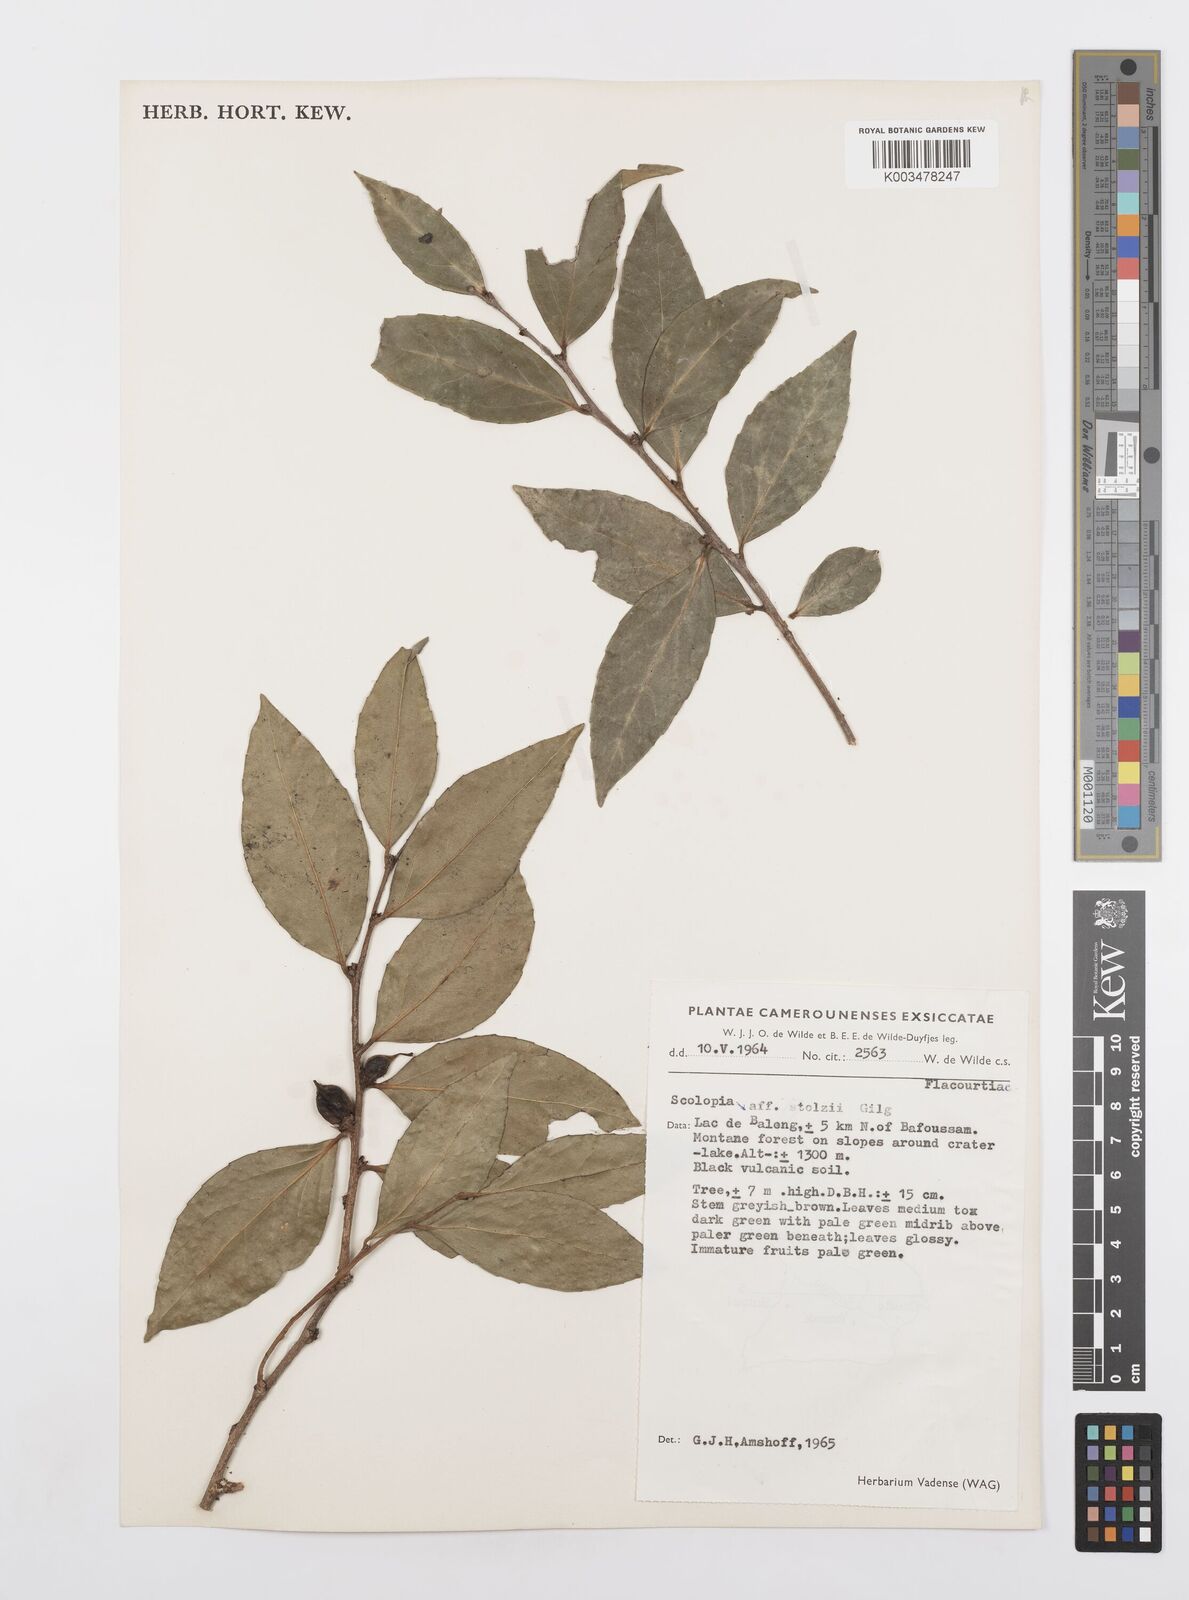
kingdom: Plantae
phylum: Tracheophyta
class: Magnoliopsida
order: Malpighiales
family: Salicaceae
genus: Scolopia
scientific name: Scolopia stolzii
